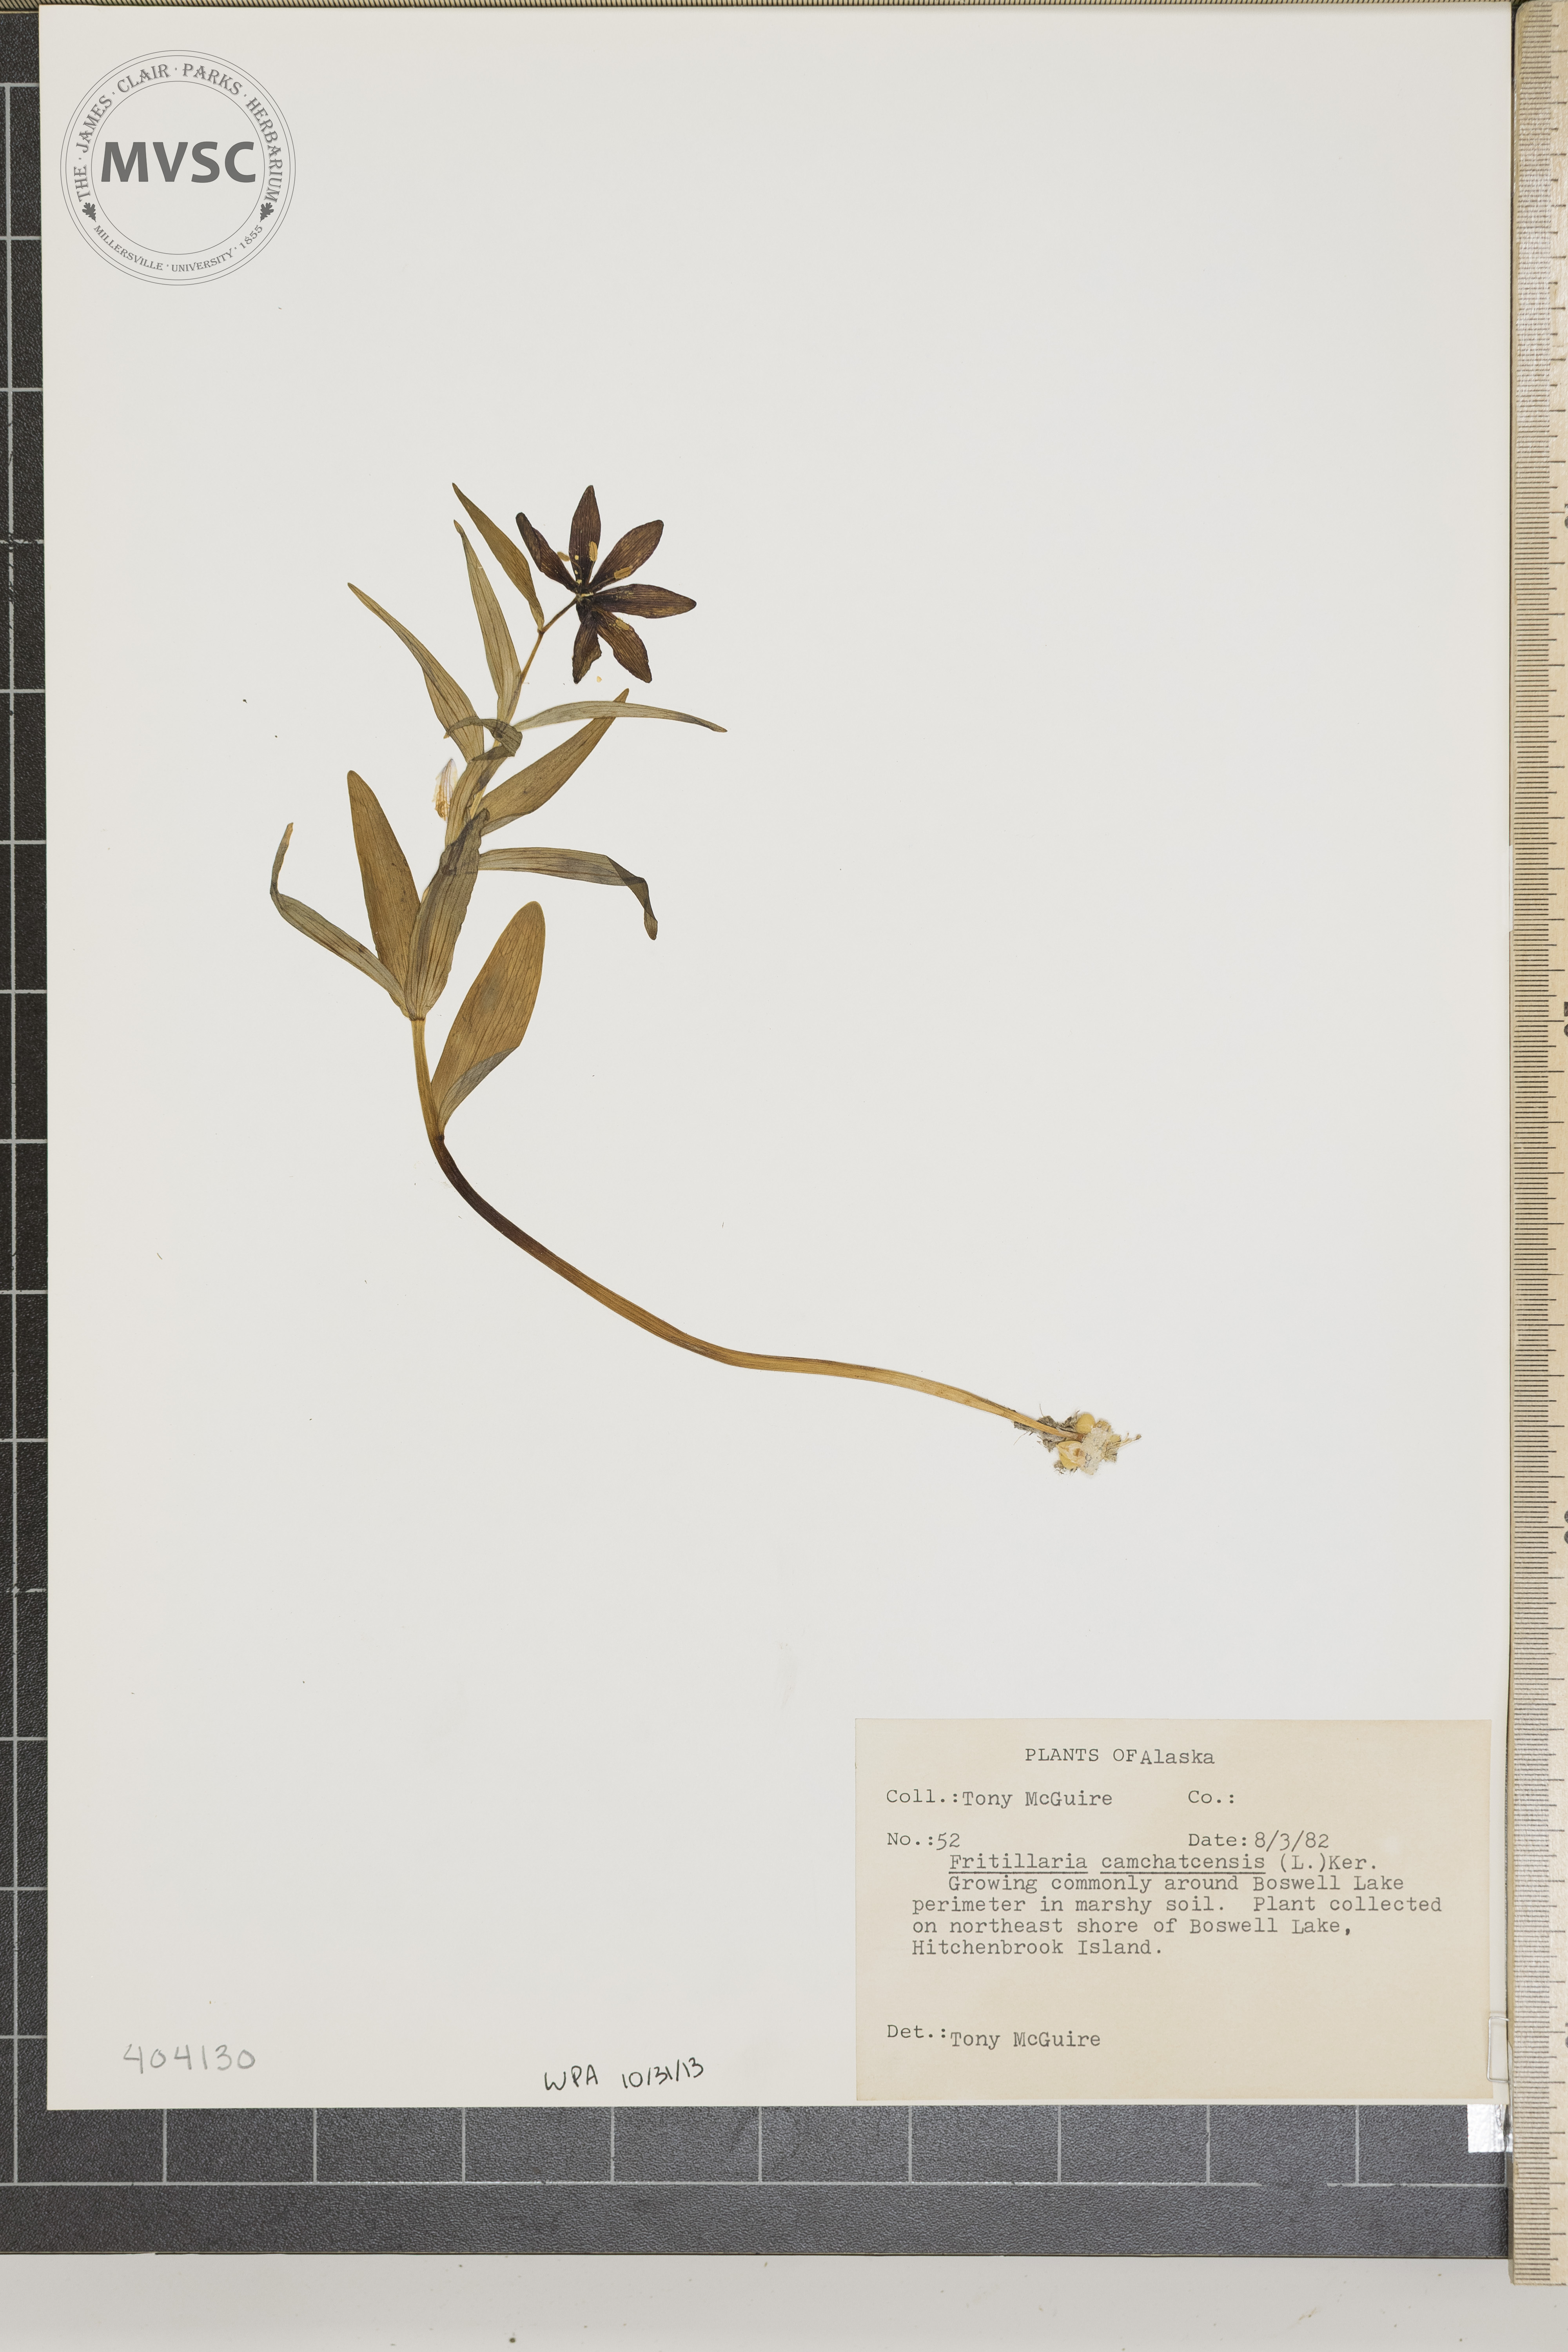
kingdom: Plantae
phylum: Tracheophyta
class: Liliopsida
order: Liliales
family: Liliaceae
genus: Fritillaria
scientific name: Fritillaria camschatcensis
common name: Kamchatka fritillary
